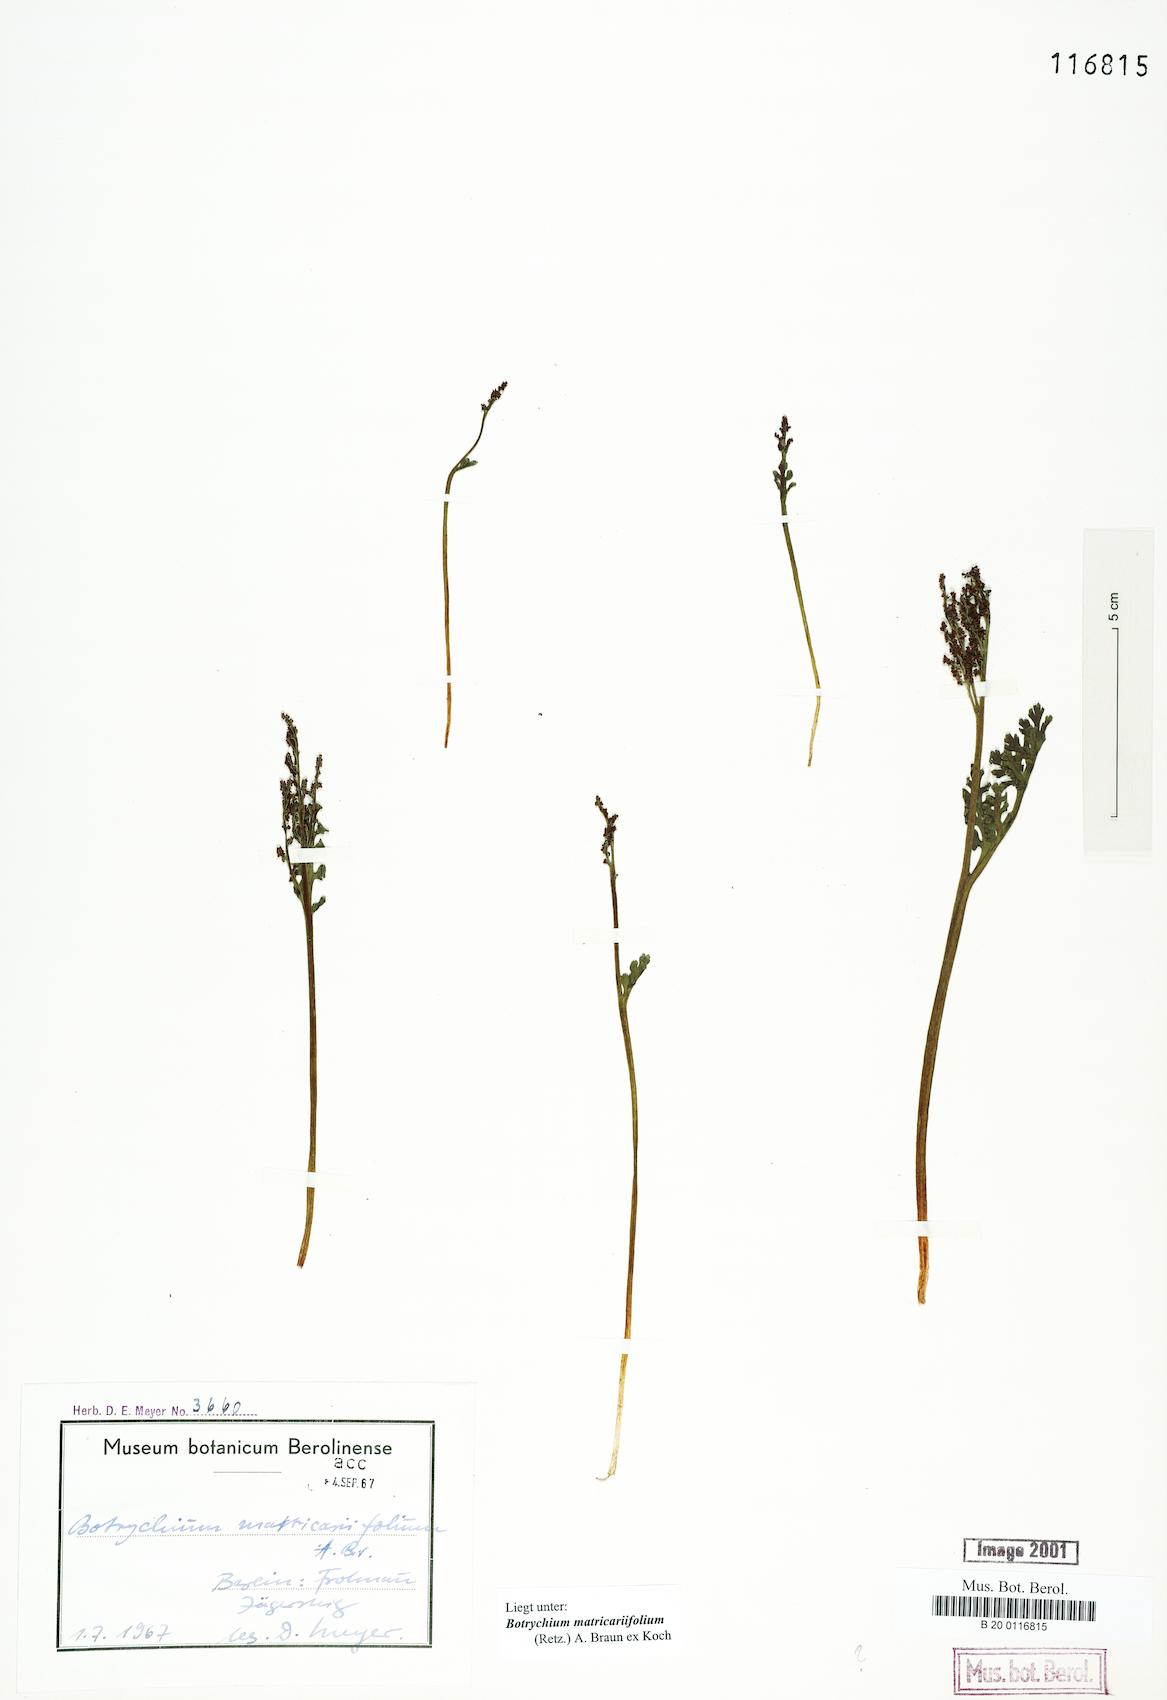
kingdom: Plantae
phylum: Tracheophyta
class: Polypodiopsida
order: Ophioglossales
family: Ophioglossaceae
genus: Botrychium
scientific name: Botrychium matricariifolium
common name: Branched moonwort
